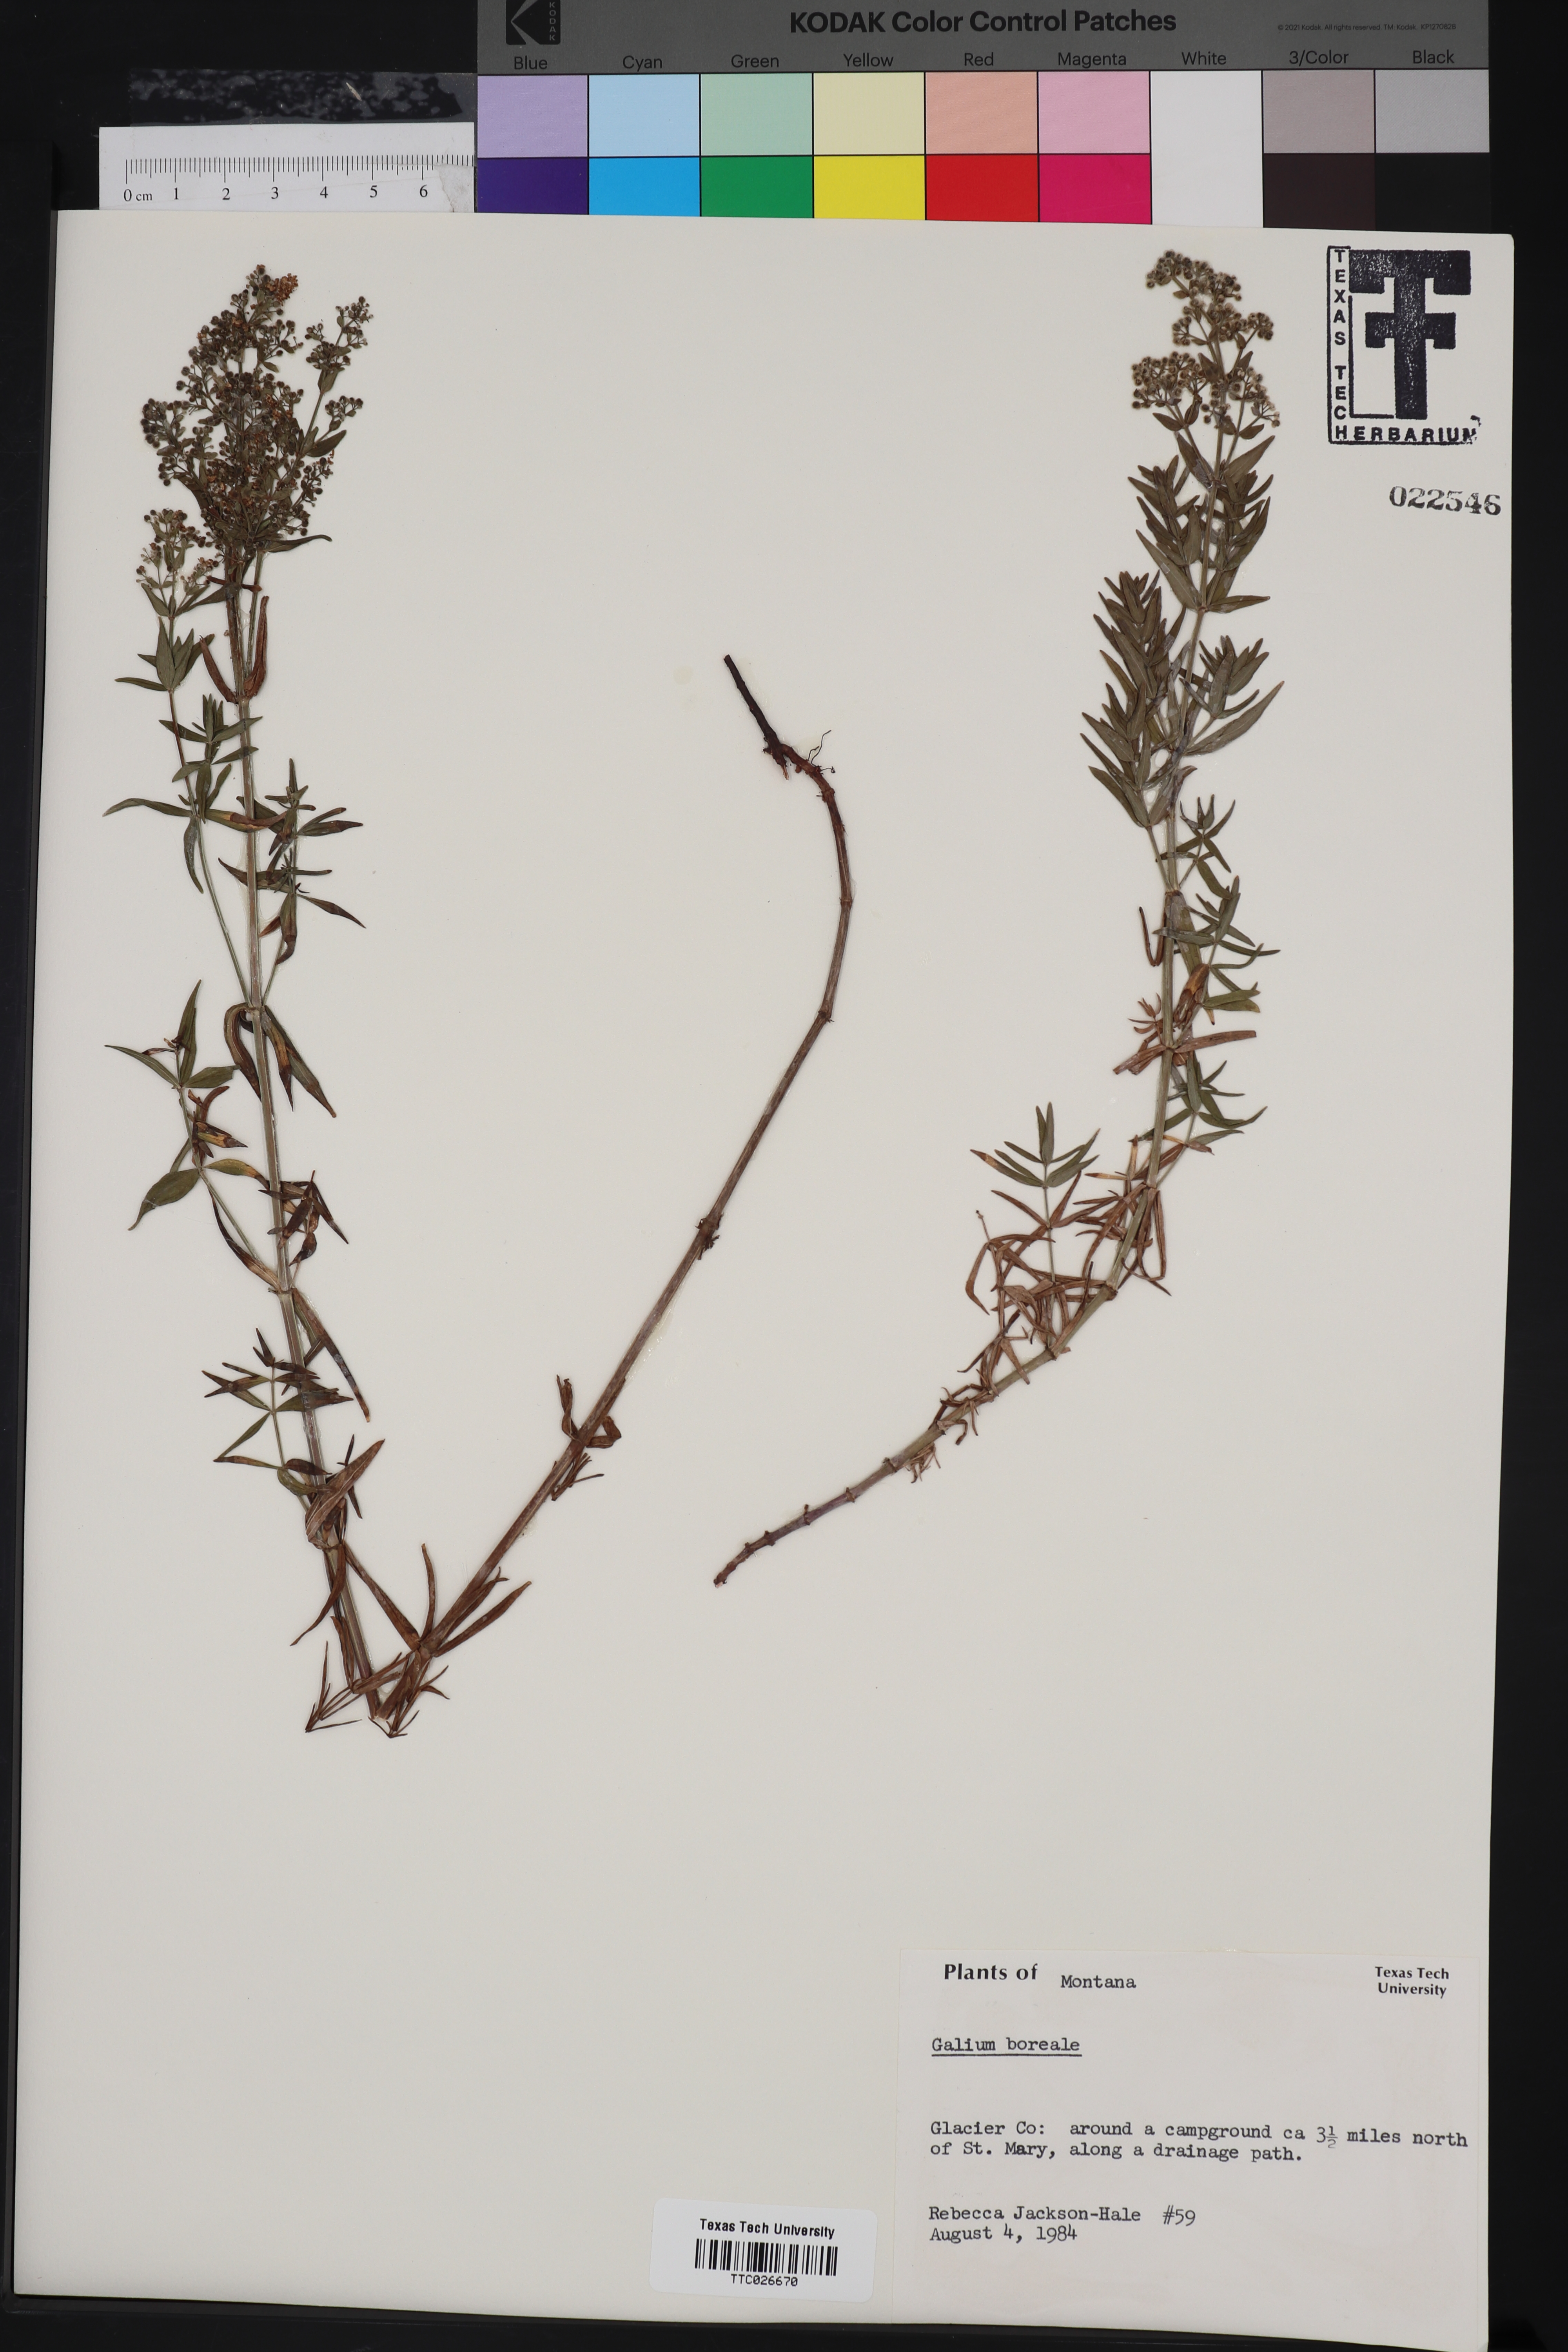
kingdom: Plantae
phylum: Tracheophyta
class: Magnoliopsida
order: Gentianales
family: Rubiaceae
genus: Galium
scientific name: Galium boreale
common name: Northern bedstraw
